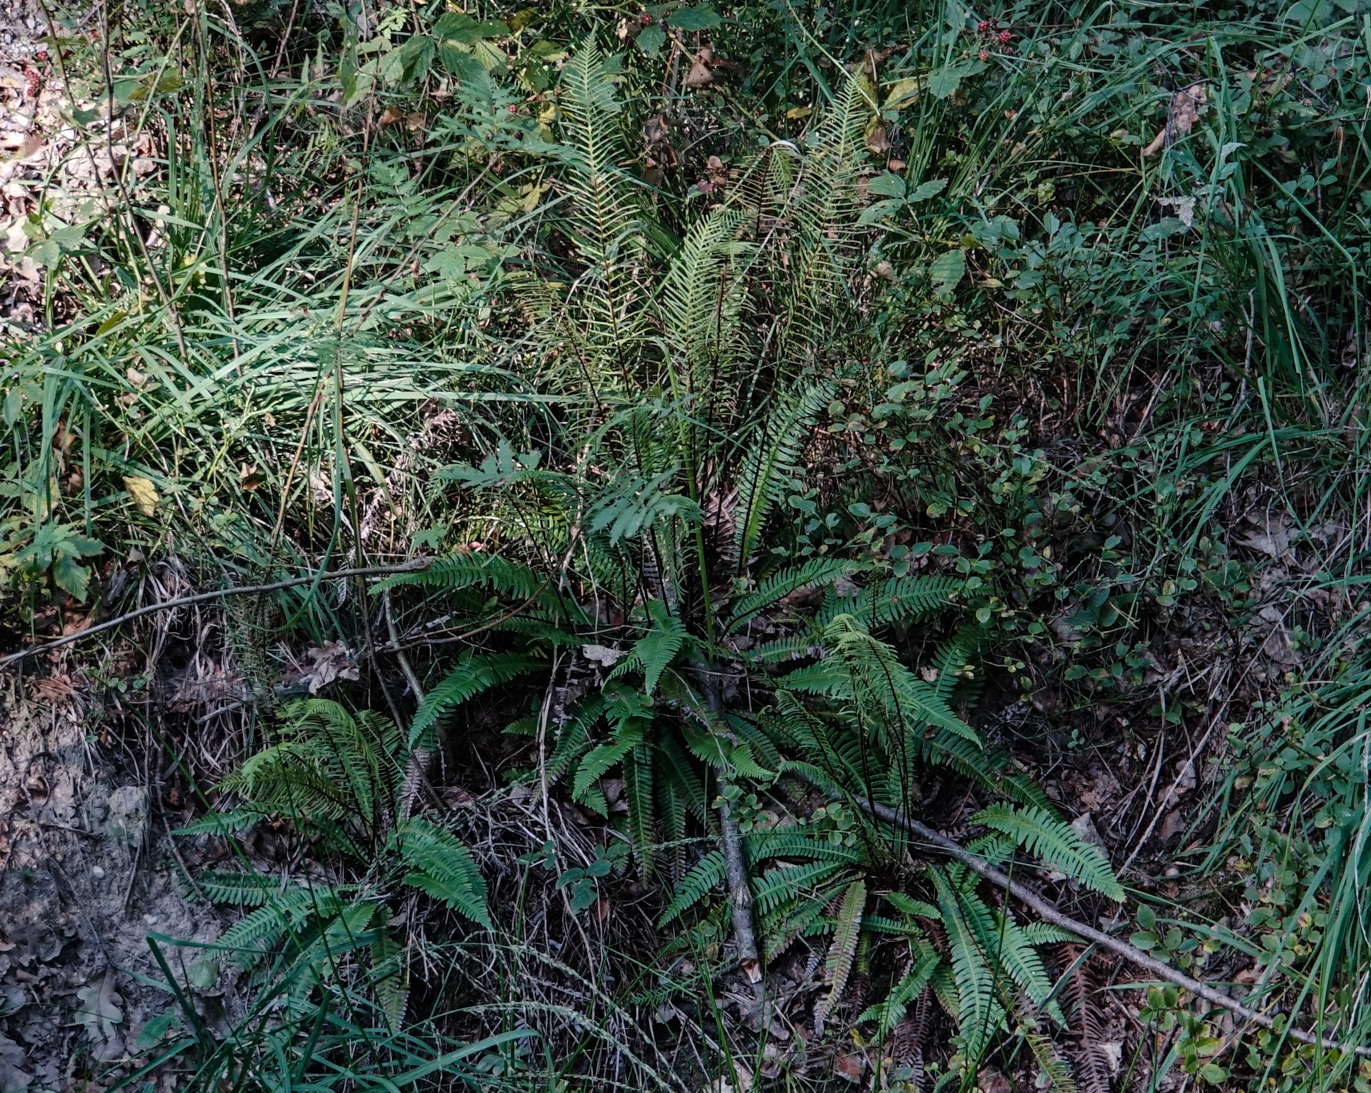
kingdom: Plantae
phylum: Tracheophyta
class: Polypodiopsida
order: Polypodiales
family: Blechnaceae
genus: Struthiopteris
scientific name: Struthiopteris spicant
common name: Deer fern
